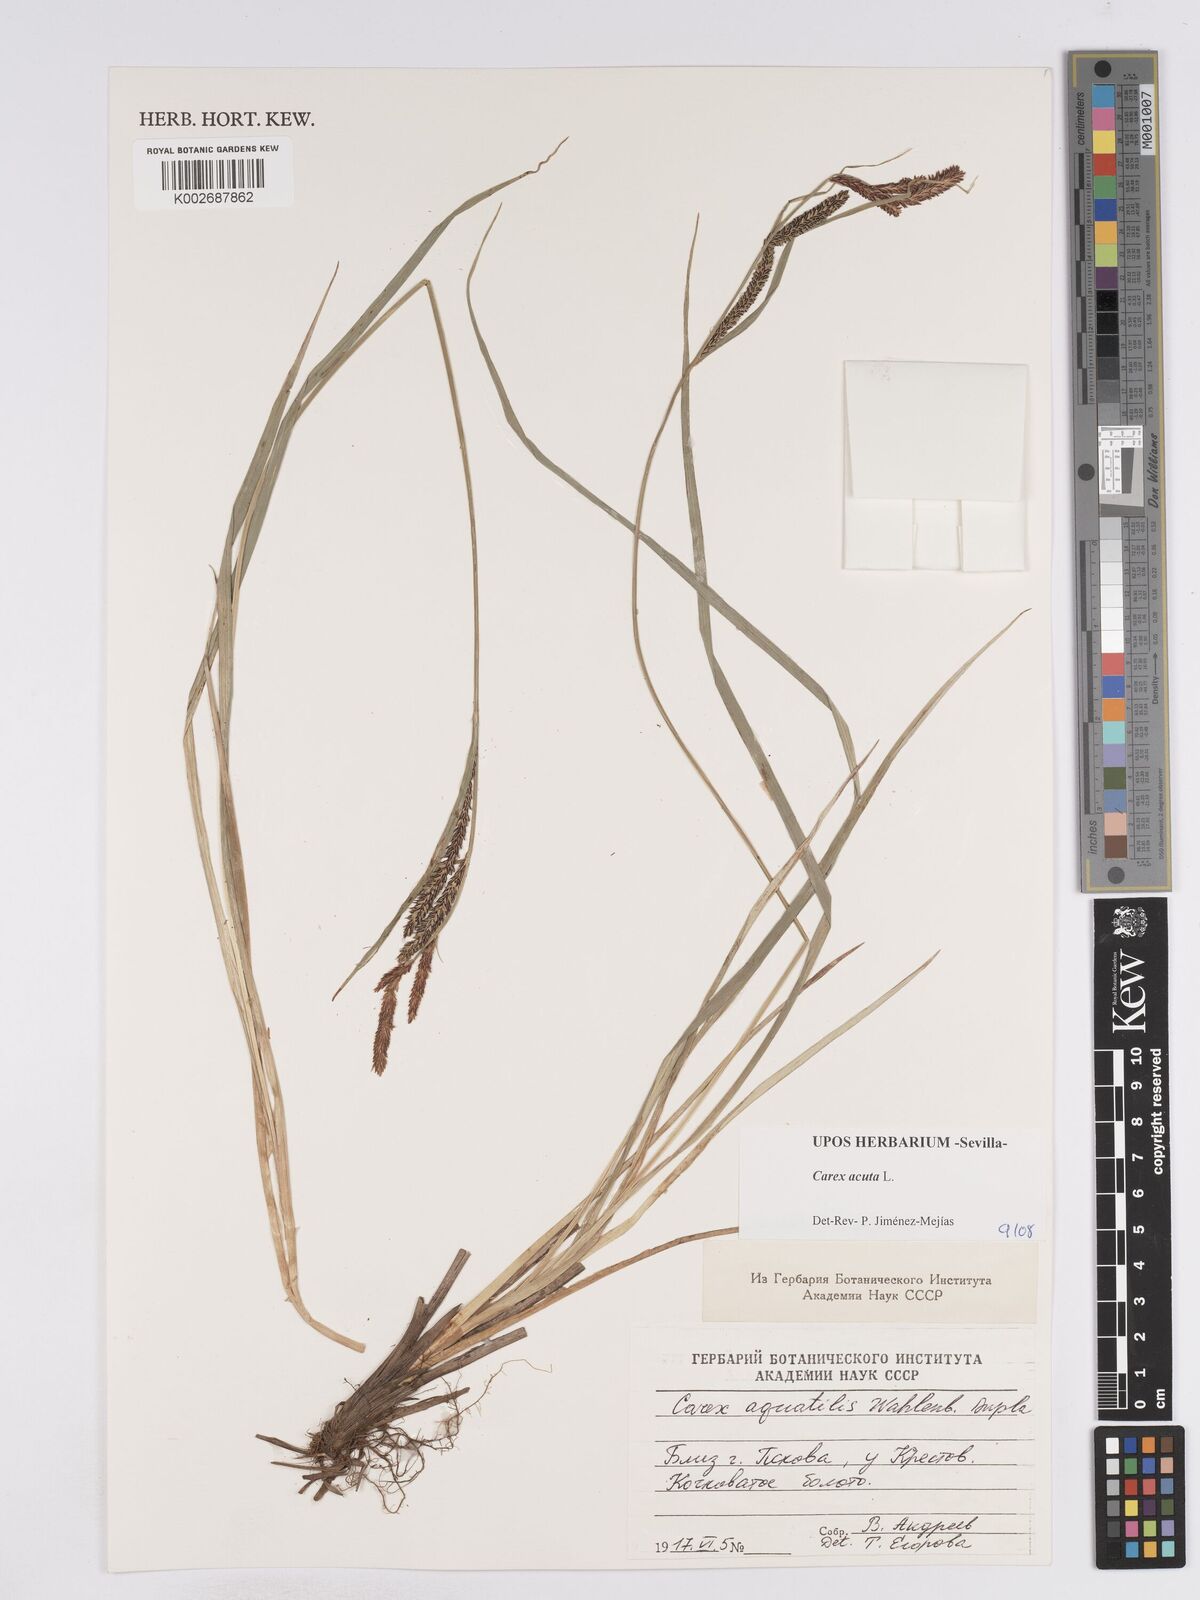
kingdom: Plantae
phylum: Tracheophyta
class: Liliopsida
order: Poales
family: Cyperaceae
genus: Carex
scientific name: Carex acuta
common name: Slender tufted-sedge
